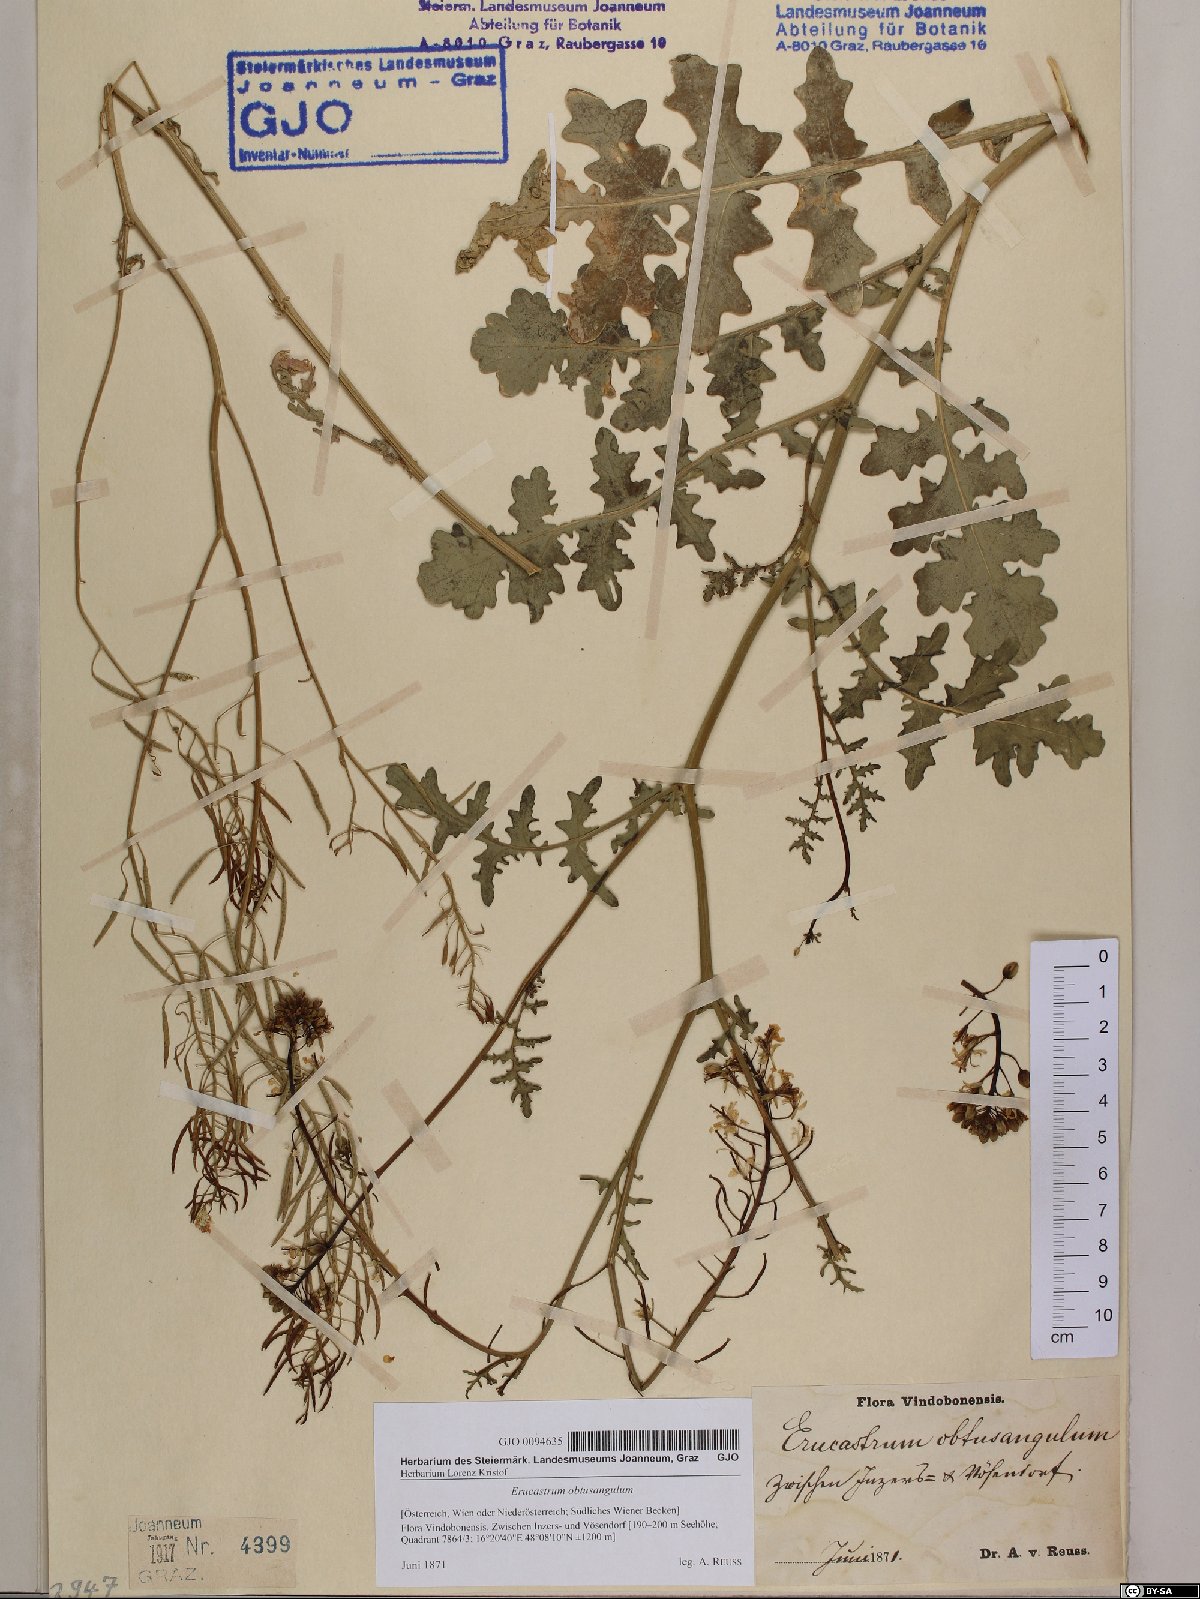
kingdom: Plantae
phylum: Tracheophyta
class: Magnoliopsida
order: Brassicales
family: Brassicaceae
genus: Erucastrum
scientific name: Erucastrum nasturtiifolium
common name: Watercress-leaf rocket
